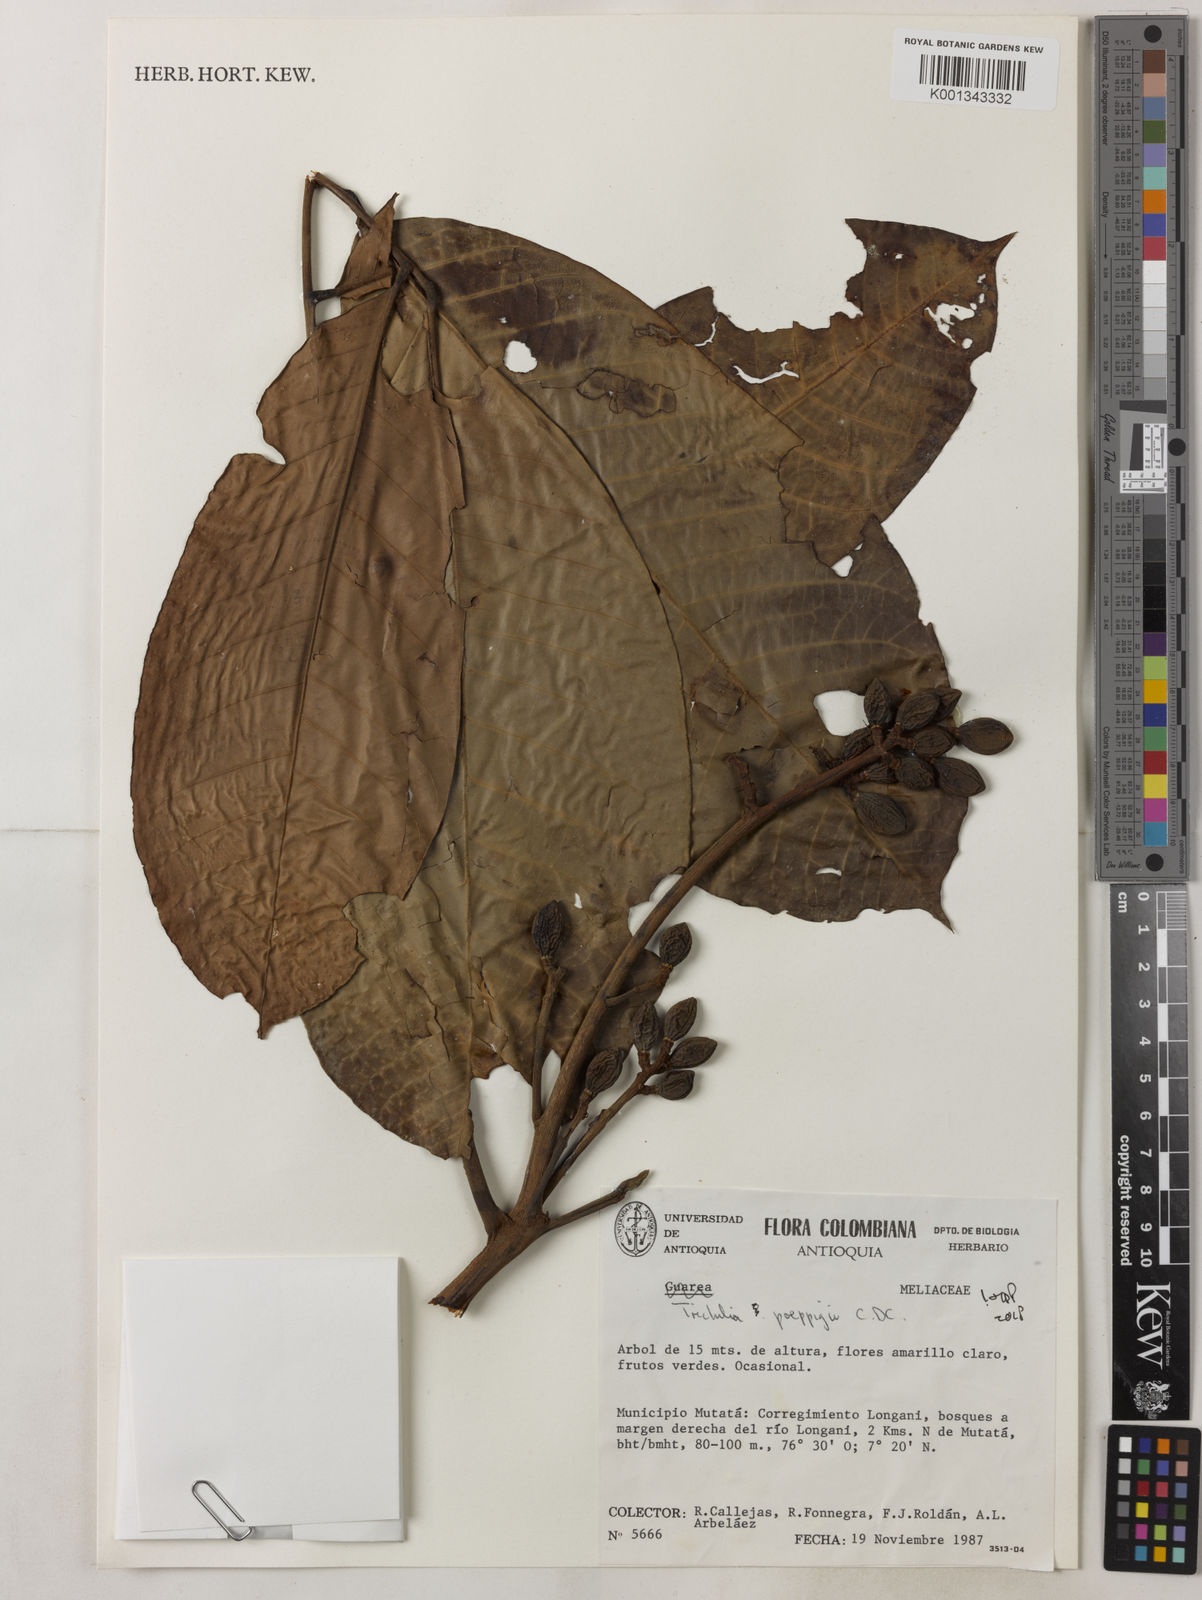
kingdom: Plantae
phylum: Tracheophyta
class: Magnoliopsida
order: Sapindales
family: Meliaceae
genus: Trichilia
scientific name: Trichilia
